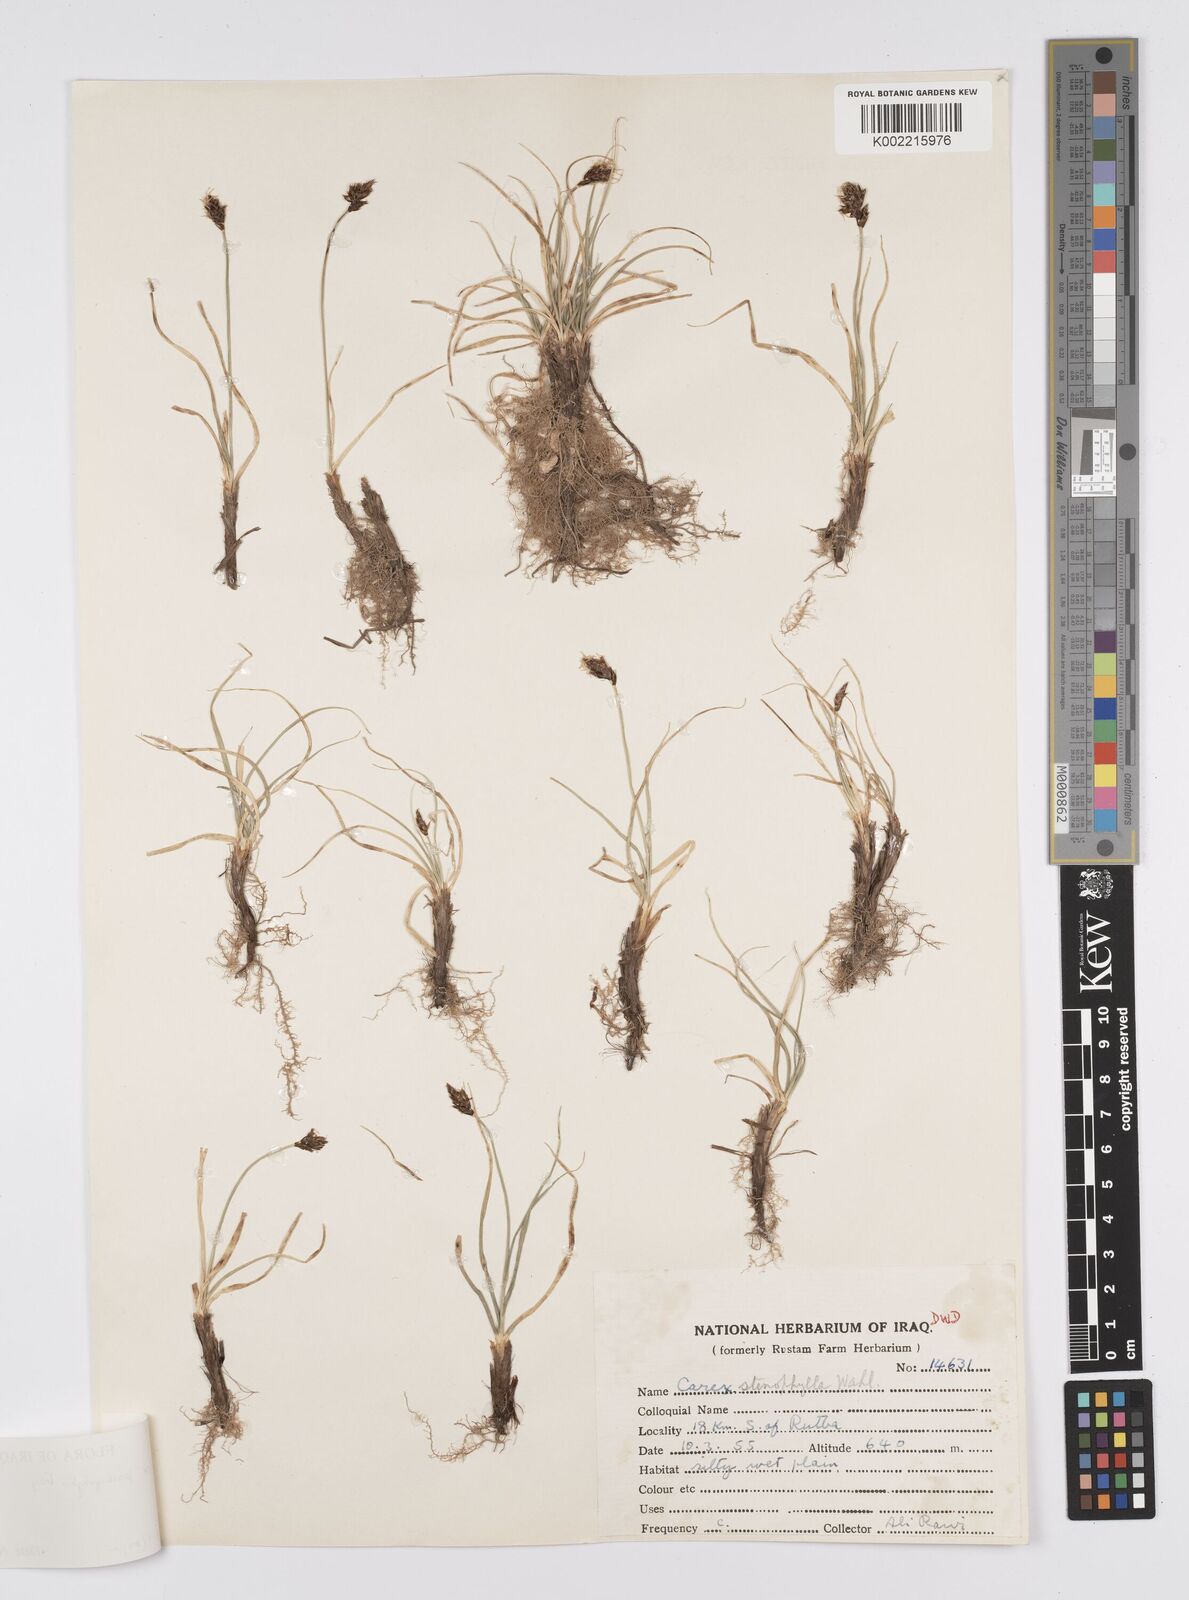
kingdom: Plantae
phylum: Tracheophyta
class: Liliopsida
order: Poales
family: Cyperaceae
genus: Carex
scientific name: Carex pachystylis
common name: Thick-stem sedge
